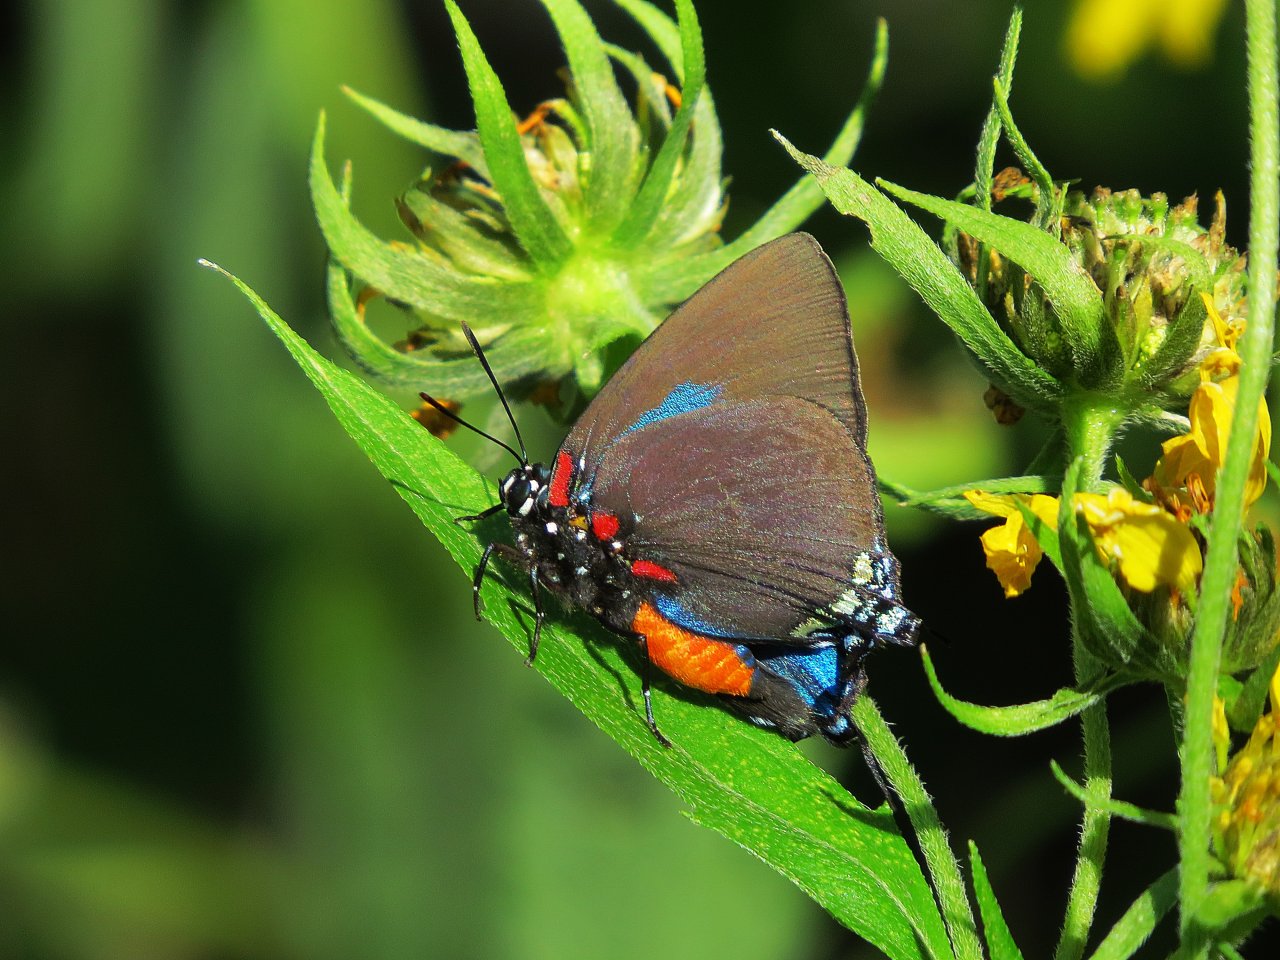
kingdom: Animalia
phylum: Arthropoda
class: Insecta
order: Lepidoptera
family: Lycaenidae
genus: Atlides
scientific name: Atlides halesus
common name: Great Purple Hairstreak
